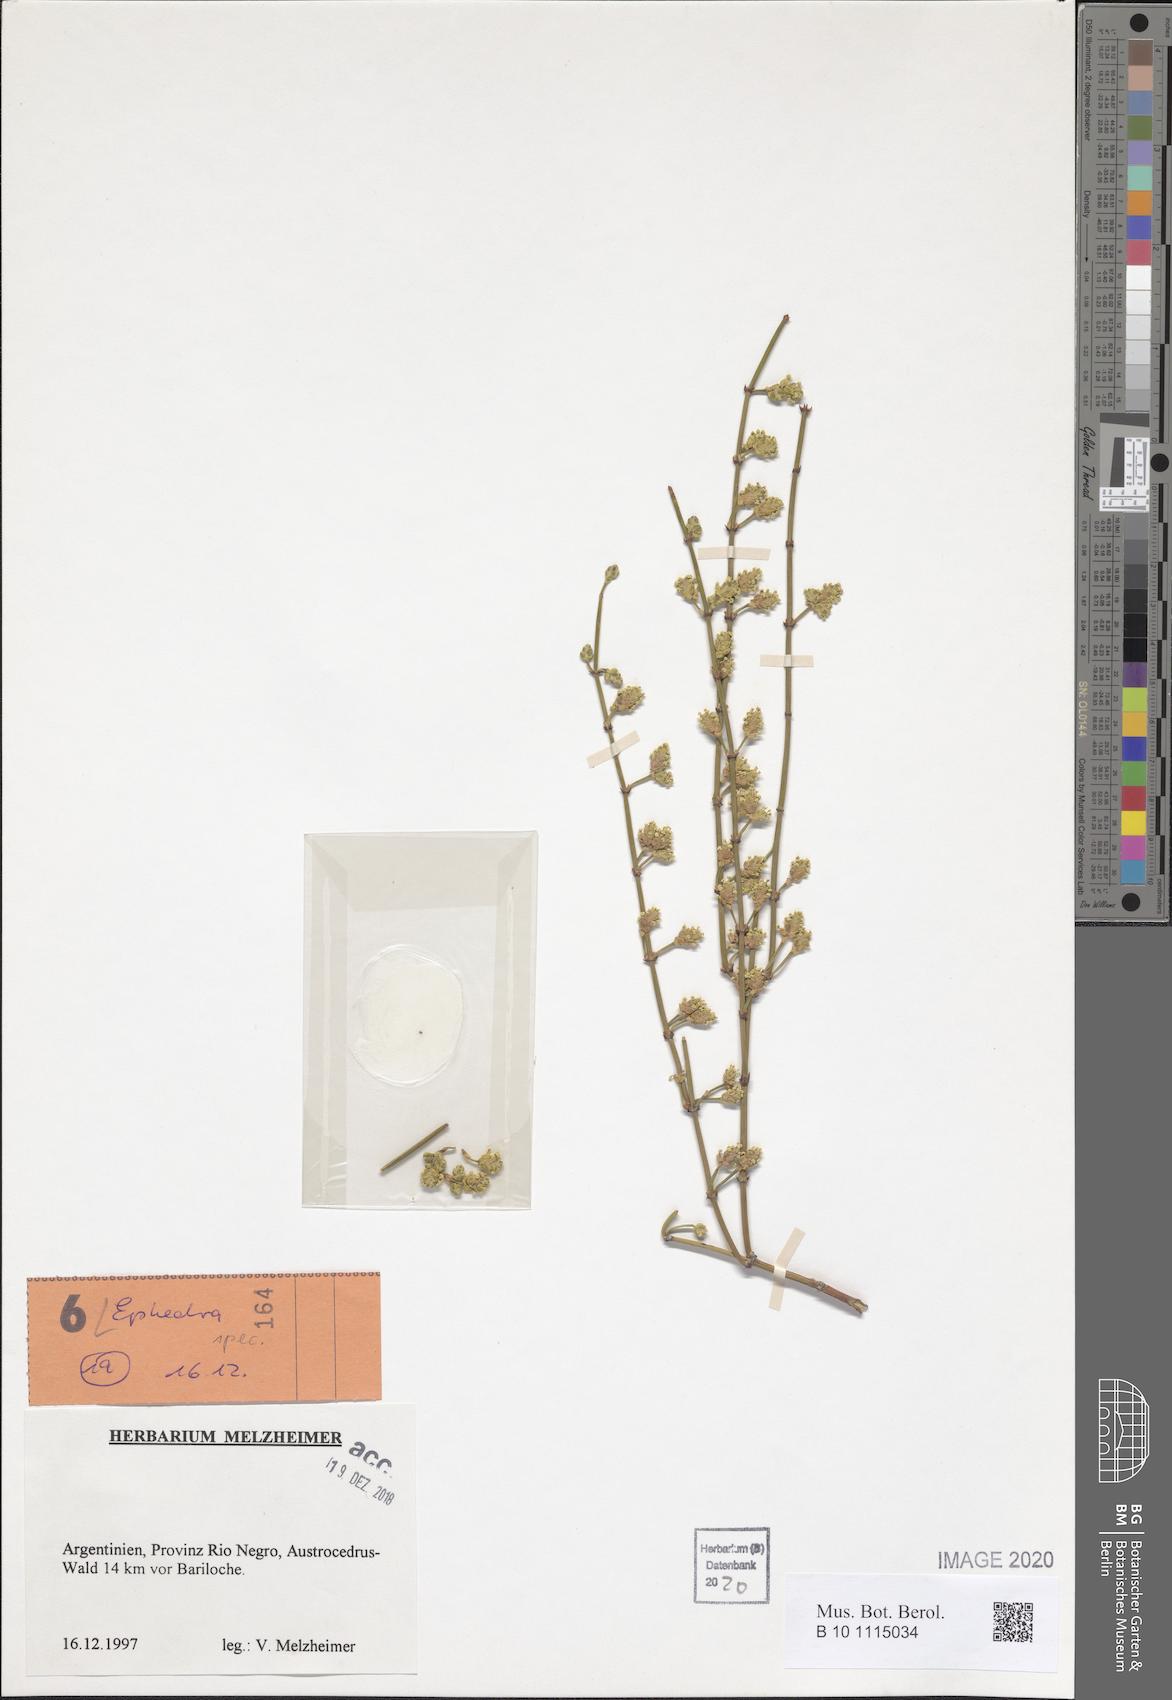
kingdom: Plantae
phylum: Tracheophyta
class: Gnetopsida
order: Ephedrales
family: Ephedraceae
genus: Ephedra
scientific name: Ephedra
